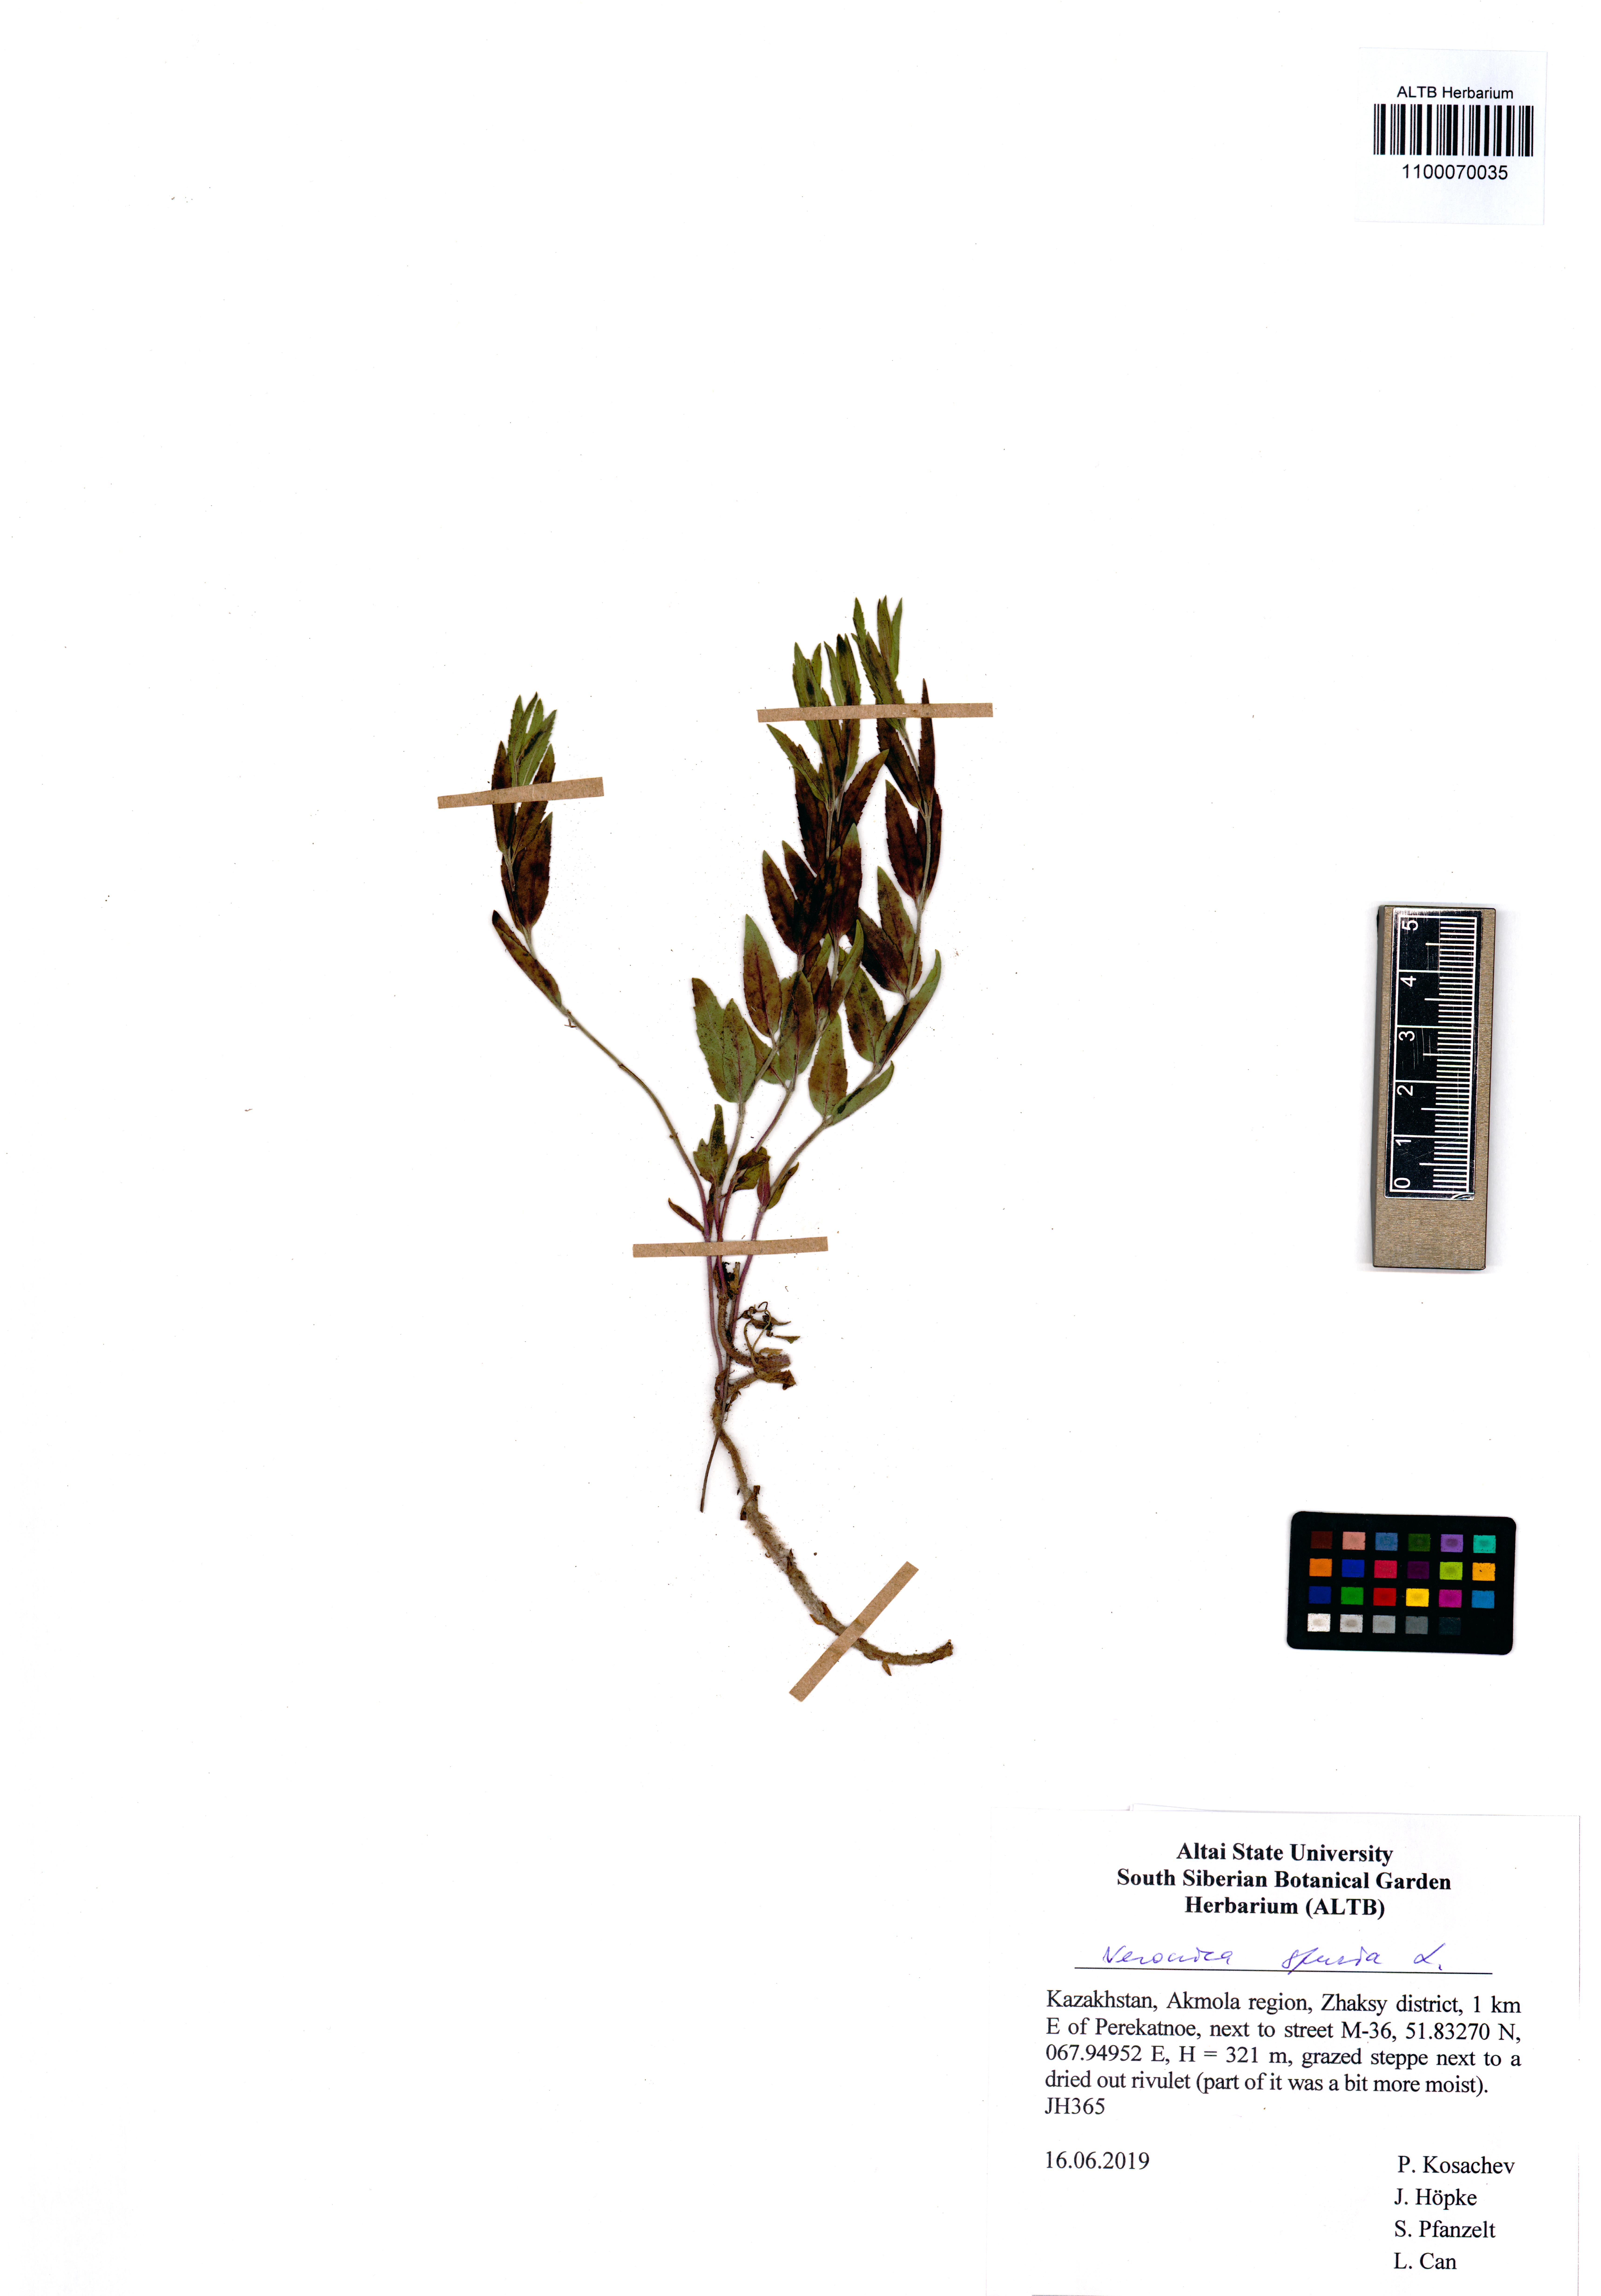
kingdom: Plantae
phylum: Tracheophyta
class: Magnoliopsida
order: Lamiales
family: Plantaginaceae
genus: Veronica
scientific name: Veronica spuria
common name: Bastard speedwell
